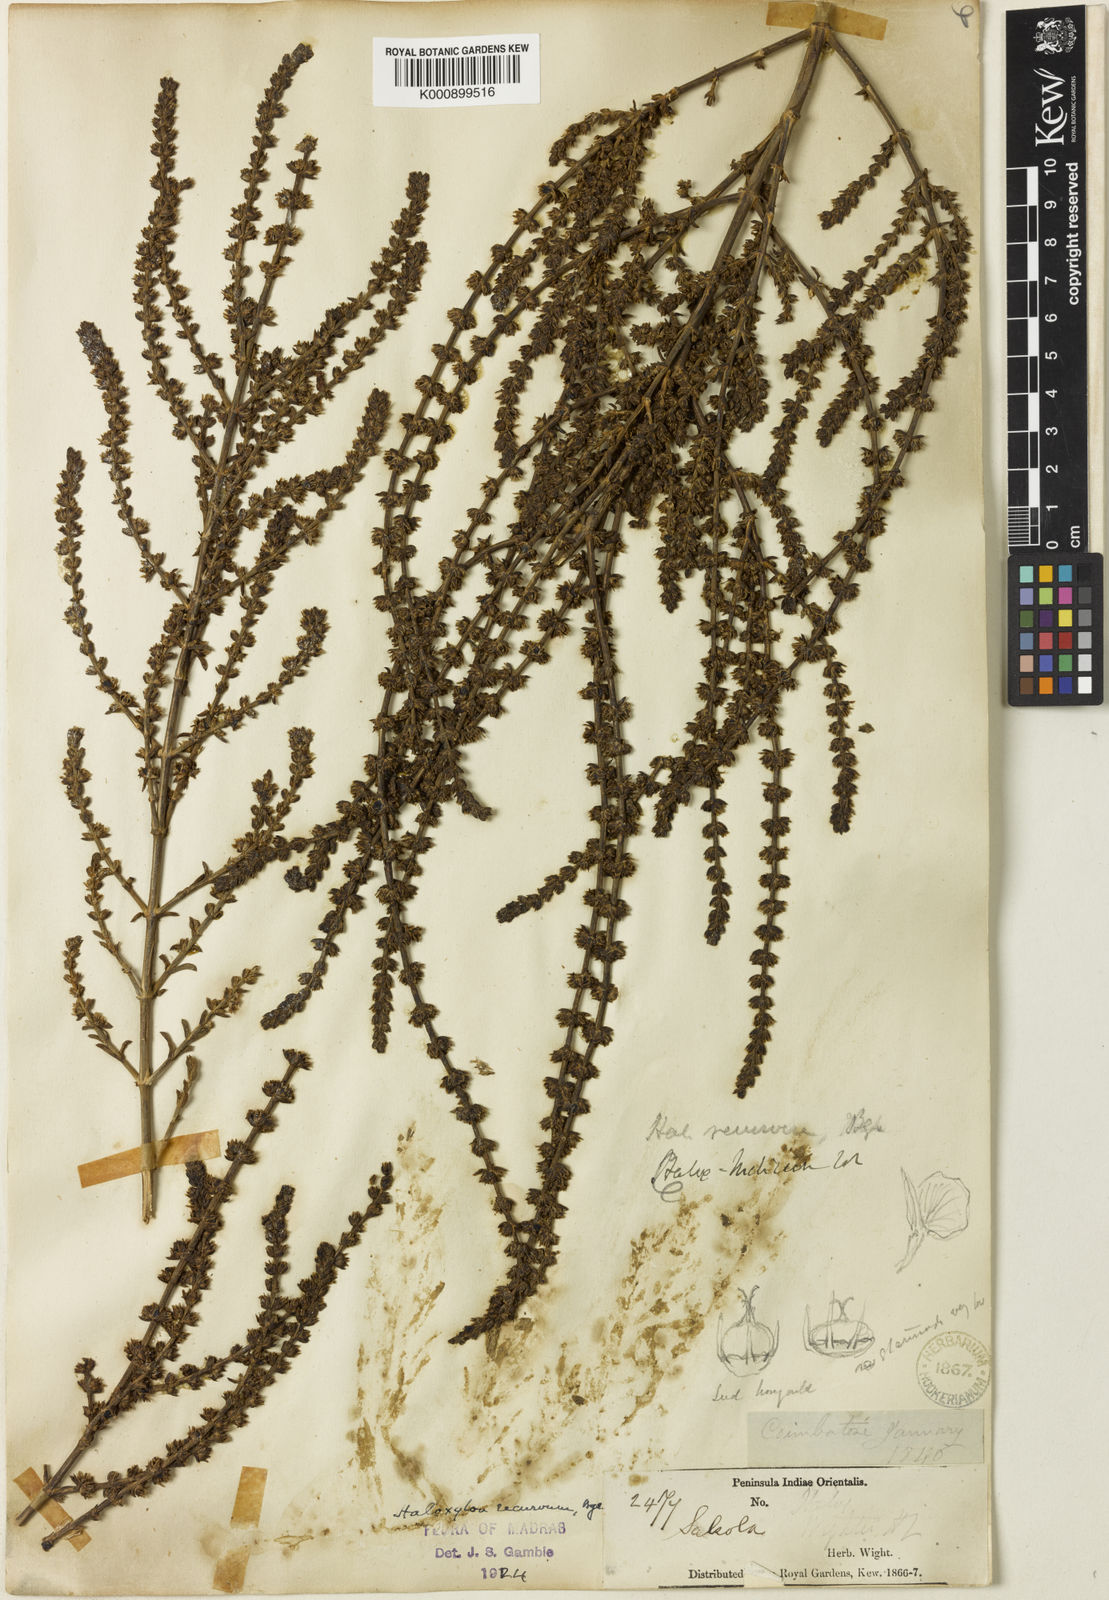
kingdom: Plantae
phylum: Tracheophyta
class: Magnoliopsida
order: Caryophyllales
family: Amaranthaceae
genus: Soda
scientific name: Soda stocksii
